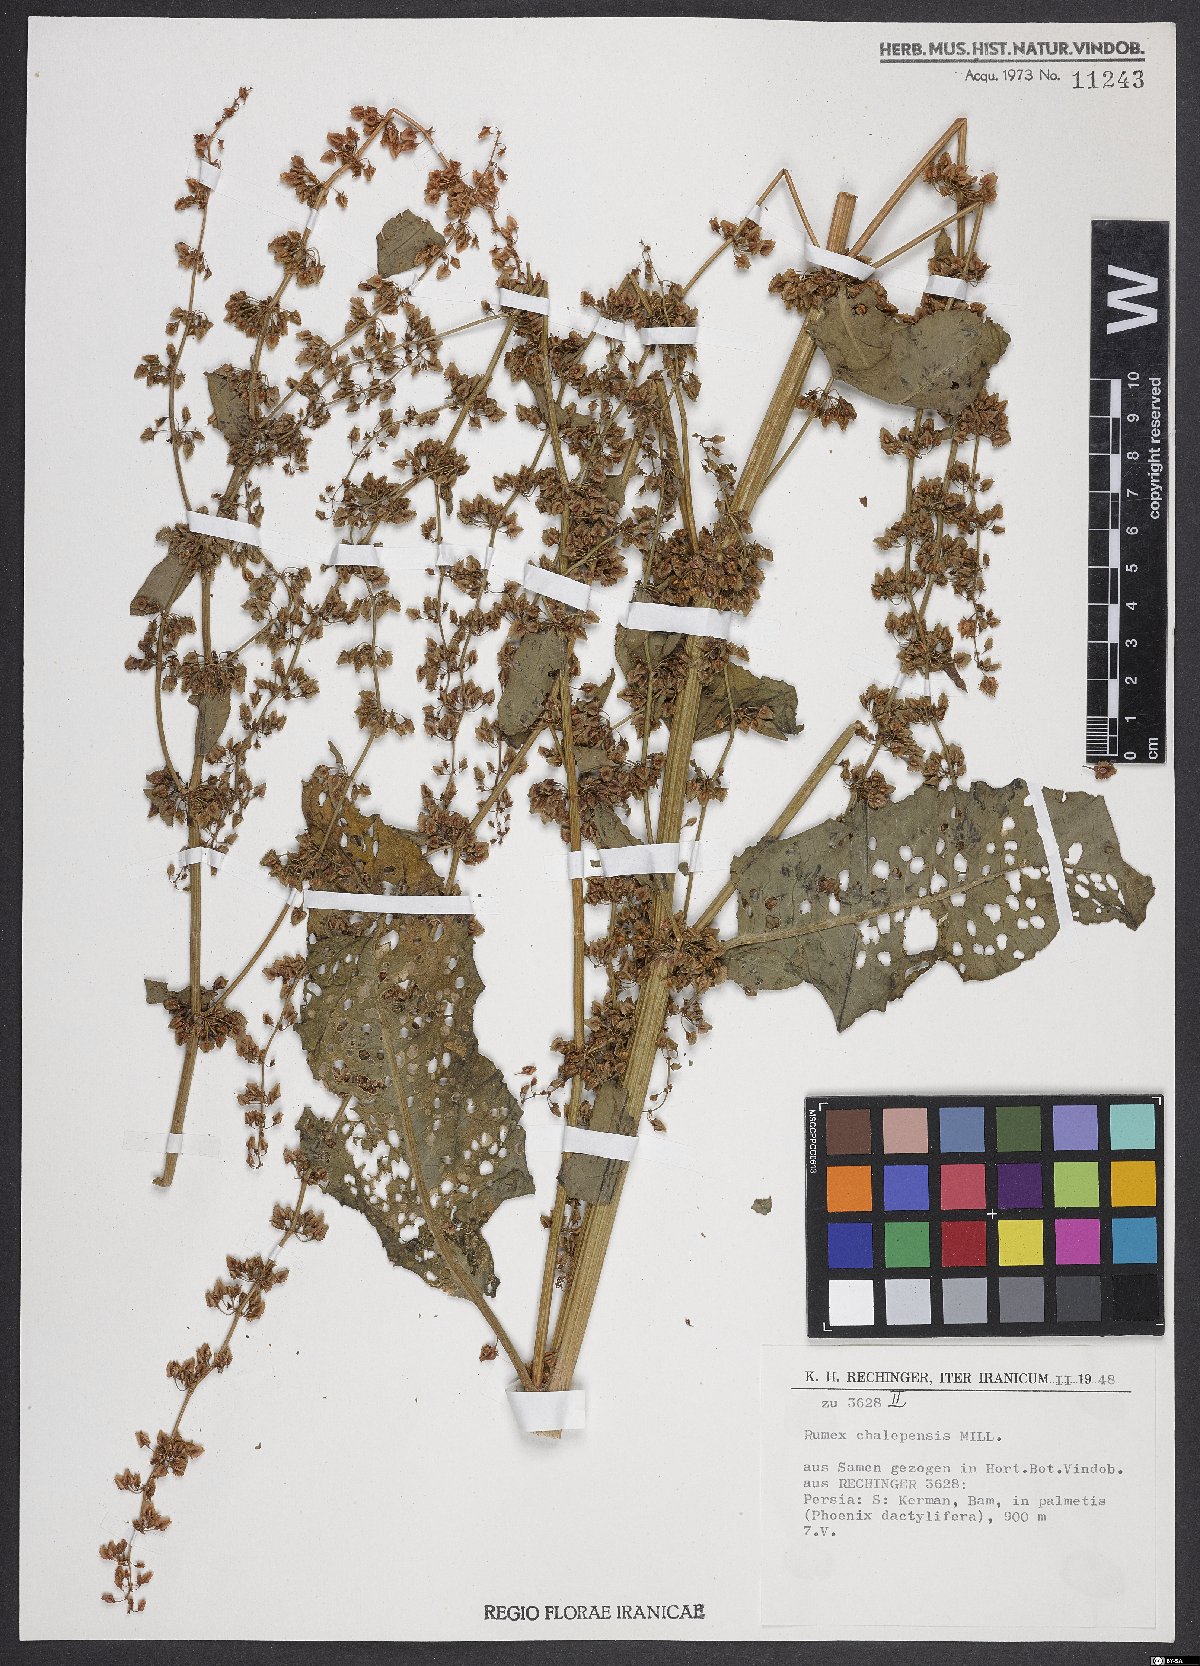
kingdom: Plantae
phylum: Tracheophyta
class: Magnoliopsida
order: Caryophyllales
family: Polygonaceae
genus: Rumex
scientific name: Rumex chalepensis
